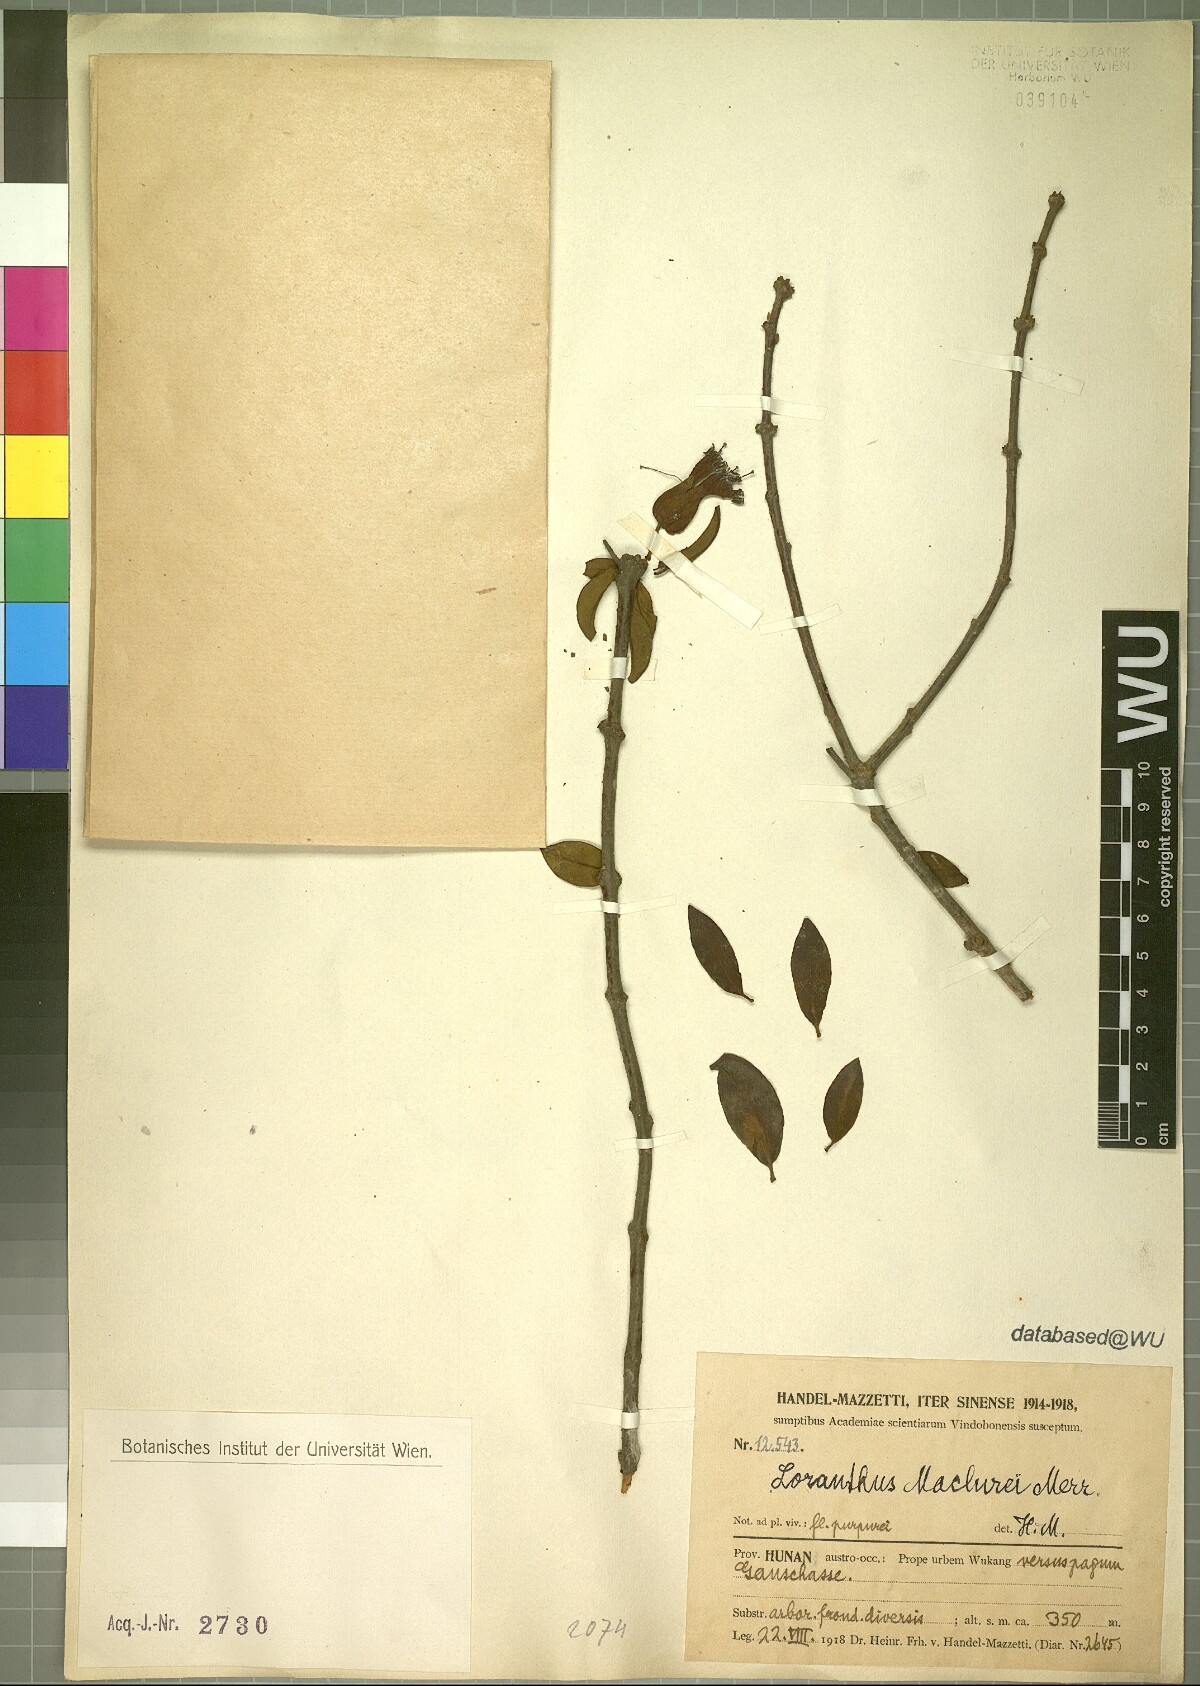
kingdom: Plantae
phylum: Tracheophyta
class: Magnoliopsida
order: Santalales
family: Loranthaceae
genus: Tolypanthus
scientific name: Tolypanthus maclurei
